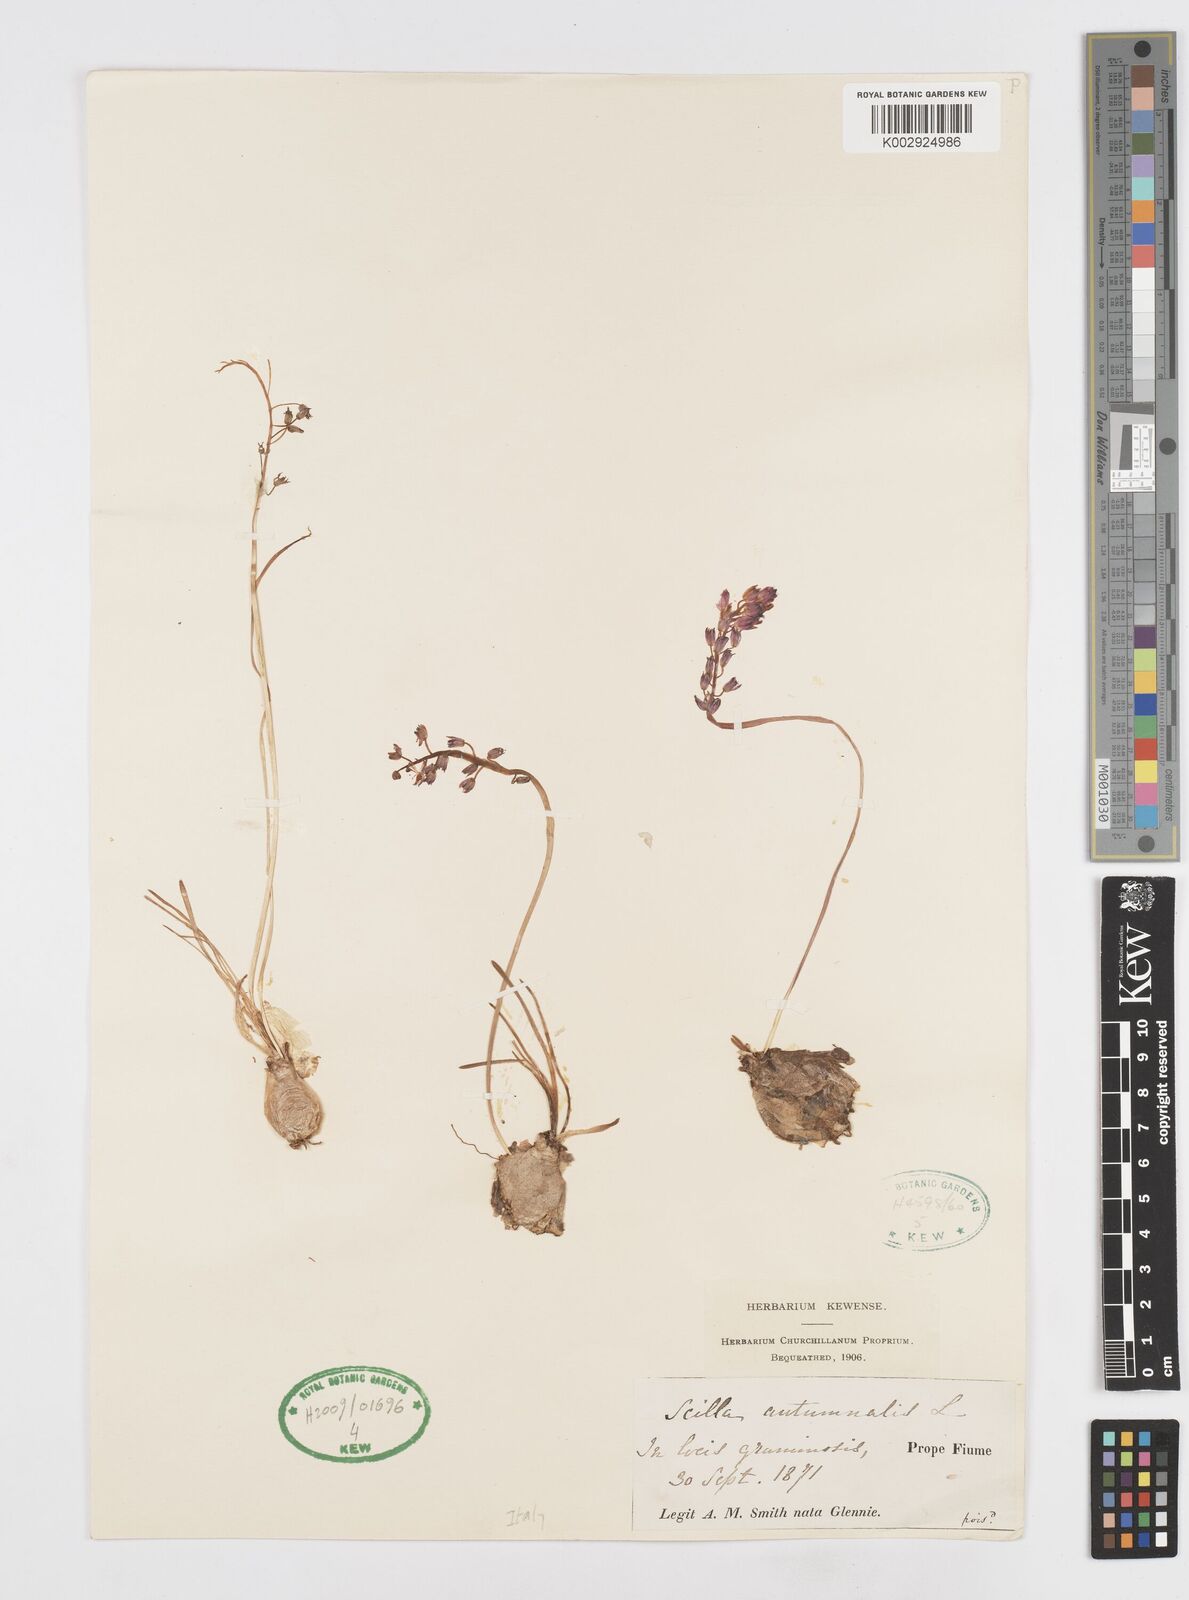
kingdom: Plantae
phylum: Tracheophyta
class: Liliopsida
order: Asparagales
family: Asparagaceae
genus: Prospero
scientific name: Prospero autumnale
